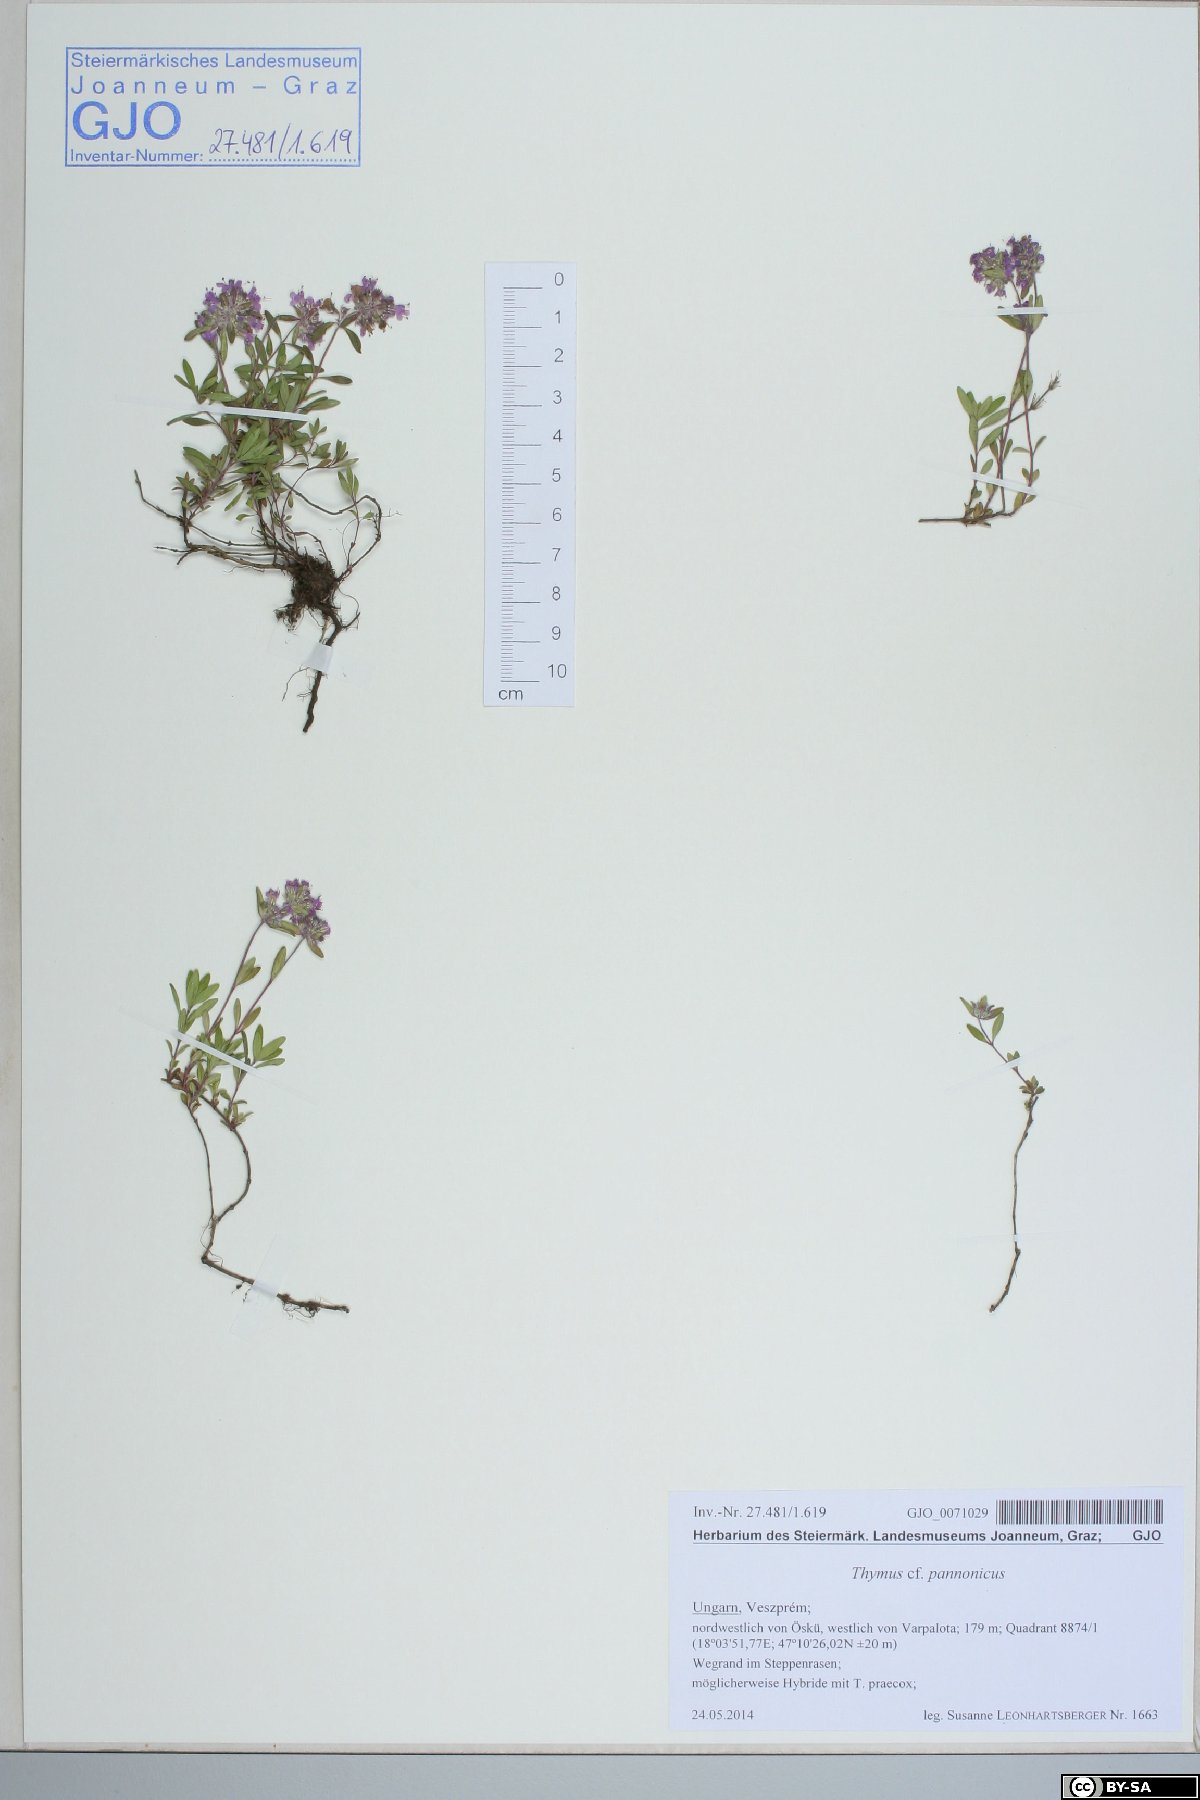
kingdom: Plantae
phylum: Tracheophyta
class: Magnoliopsida
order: Lamiales
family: Lamiaceae
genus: Thymus
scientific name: Thymus pannonicus
